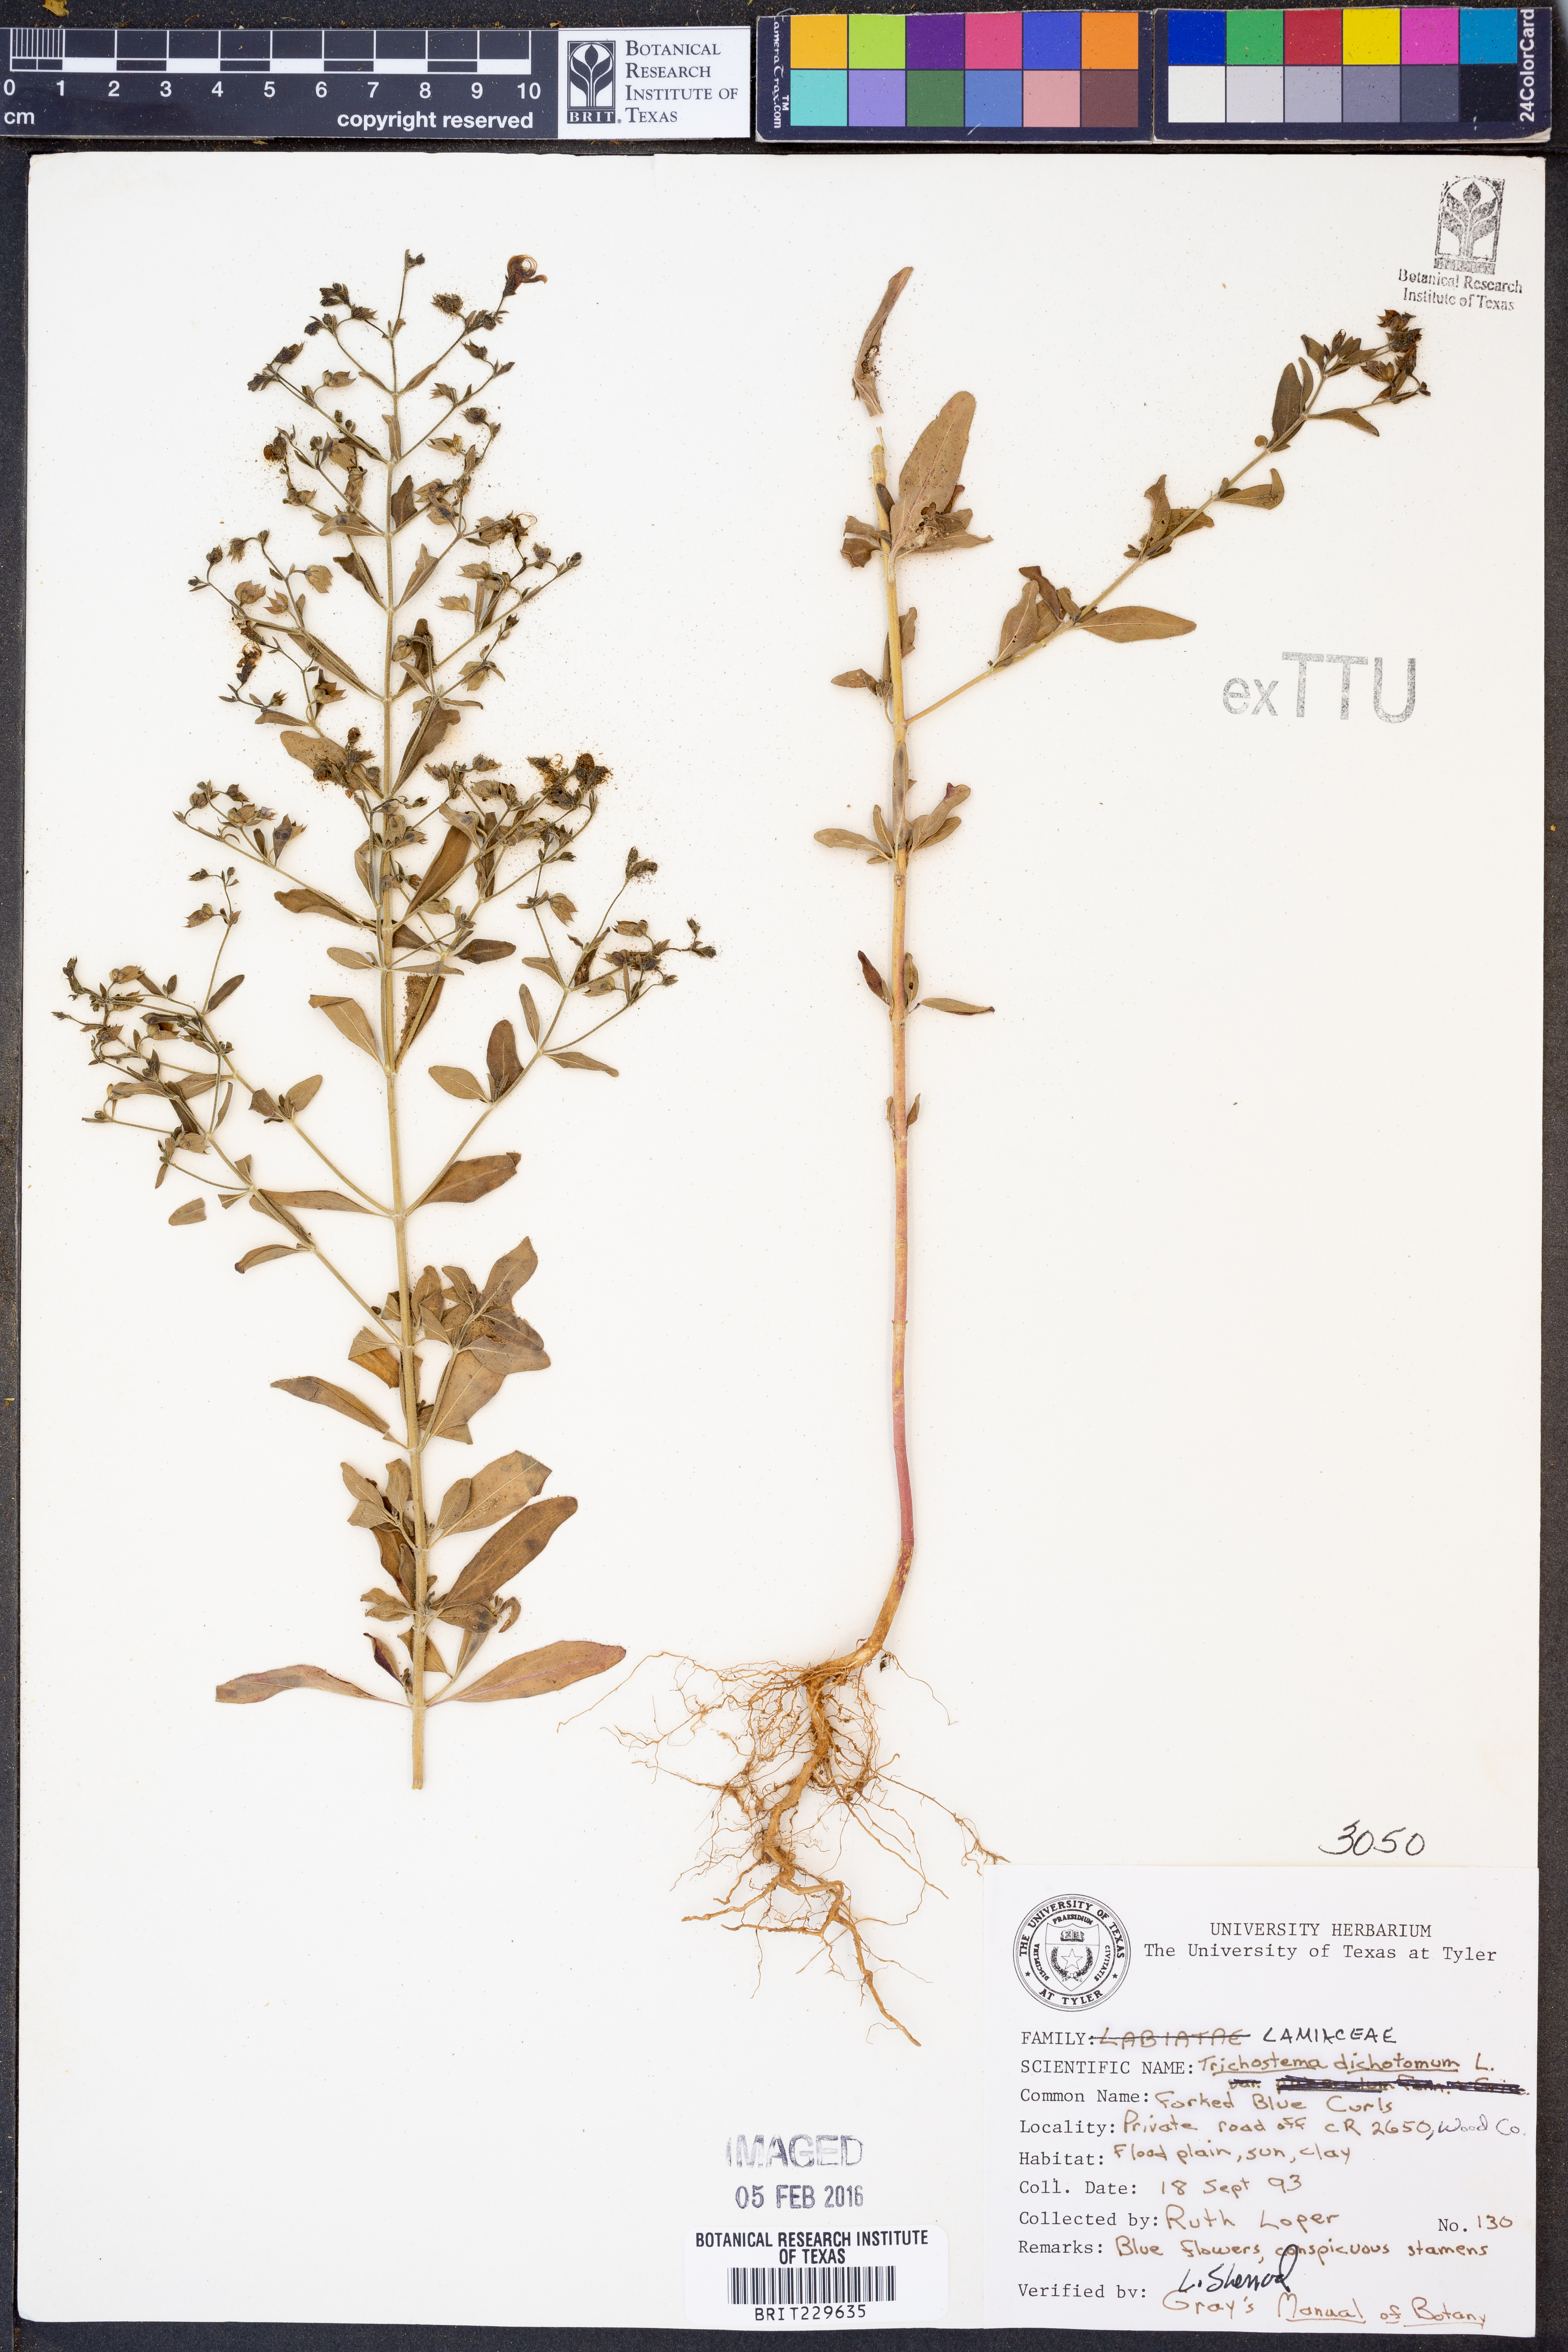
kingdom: Plantae
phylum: Tracheophyta
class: Magnoliopsida
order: Lamiales
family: Lamiaceae
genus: Trichostema
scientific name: Trichostema dichotomum
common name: Bastard pennyroyal
